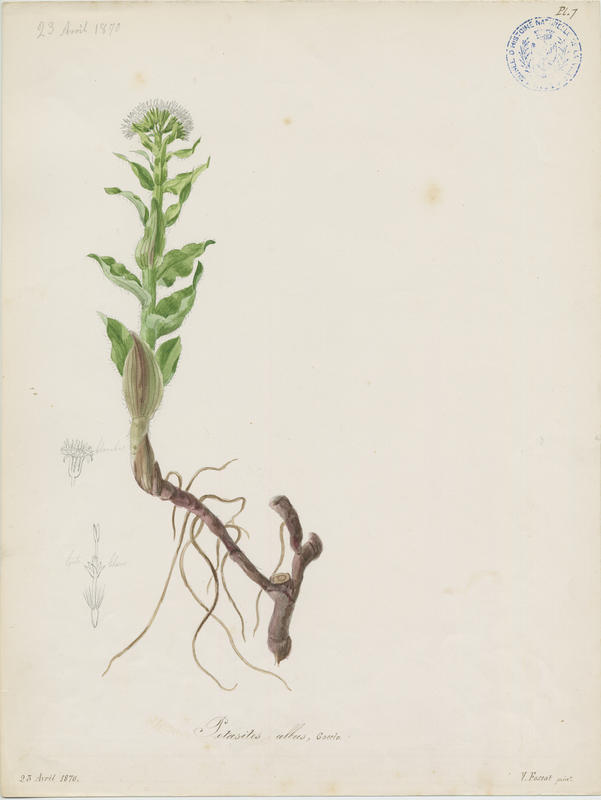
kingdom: Plantae
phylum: Tracheophyta
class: Magnoliopsida
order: Asterales
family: Asteraceae
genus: Petasites
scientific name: Petasites albus
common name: White butterbur
